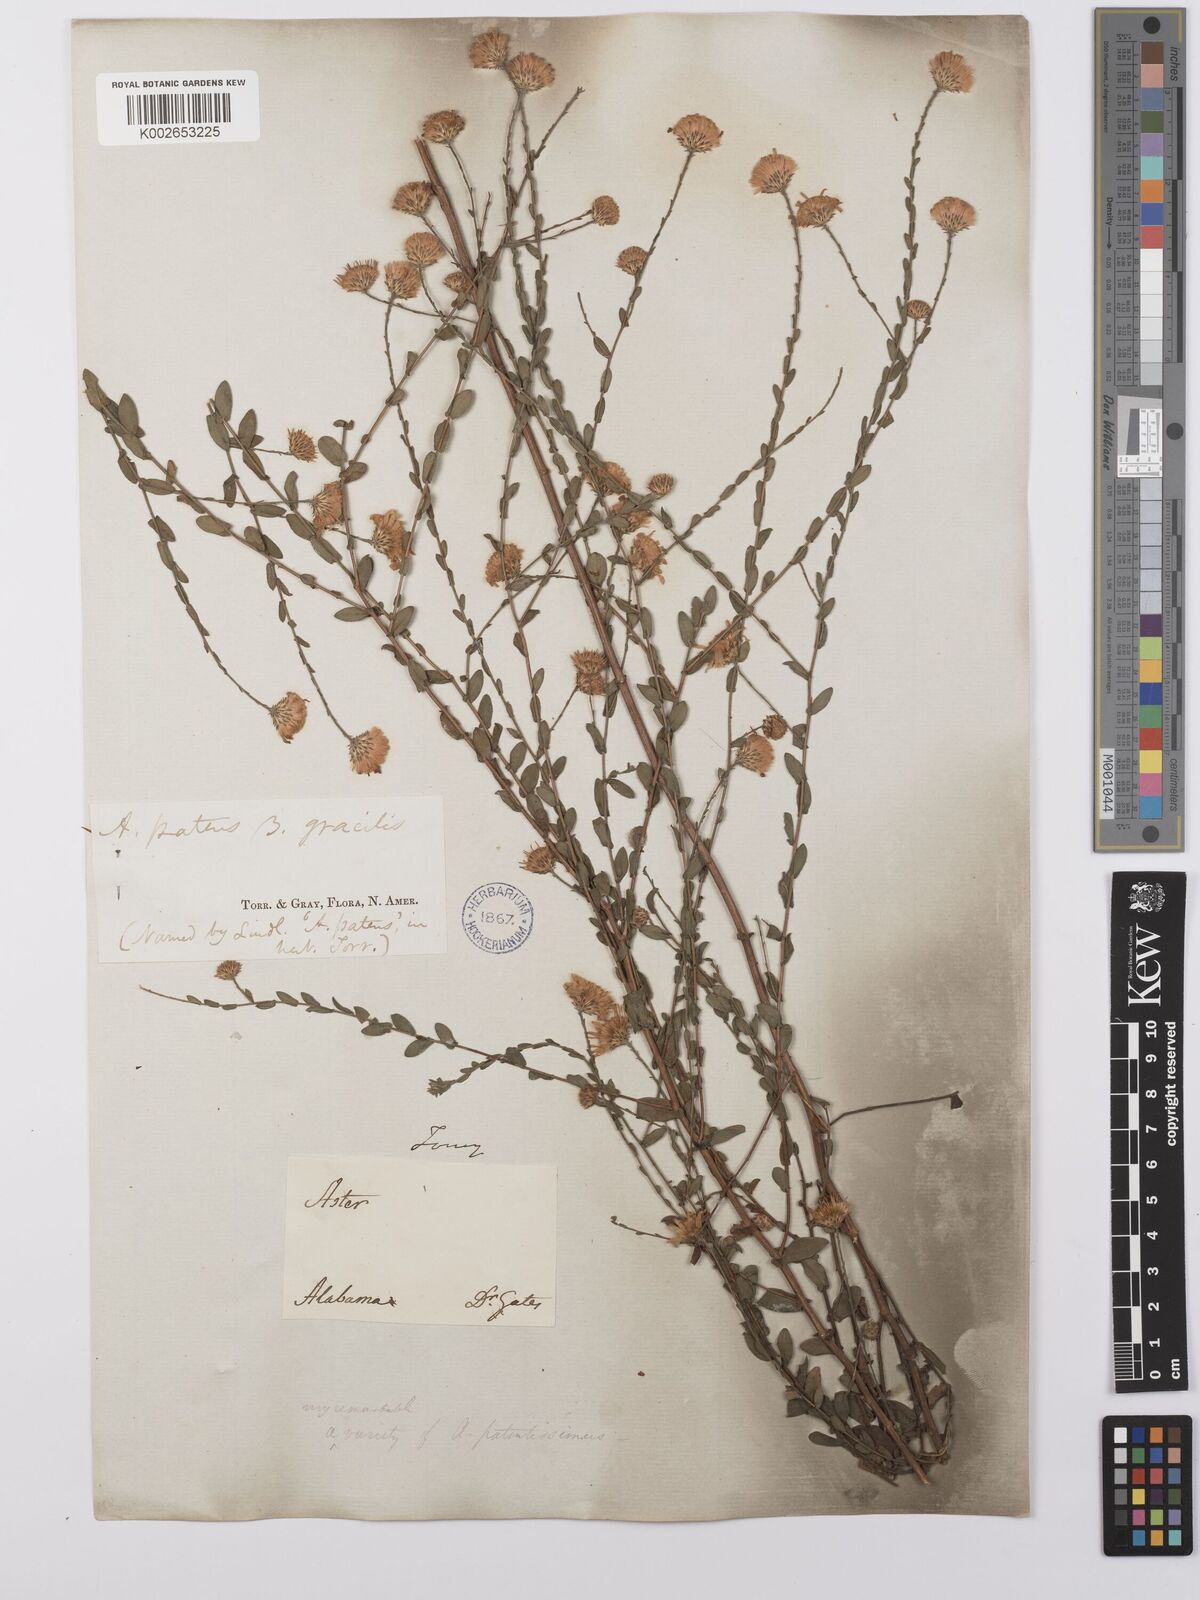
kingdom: Plantae
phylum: Tracheophyta
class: Magnoliopsida
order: Asterales
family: Asteraceae
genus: Symphyotrichum
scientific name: Symphyotrichum patens
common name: Late purple aster
